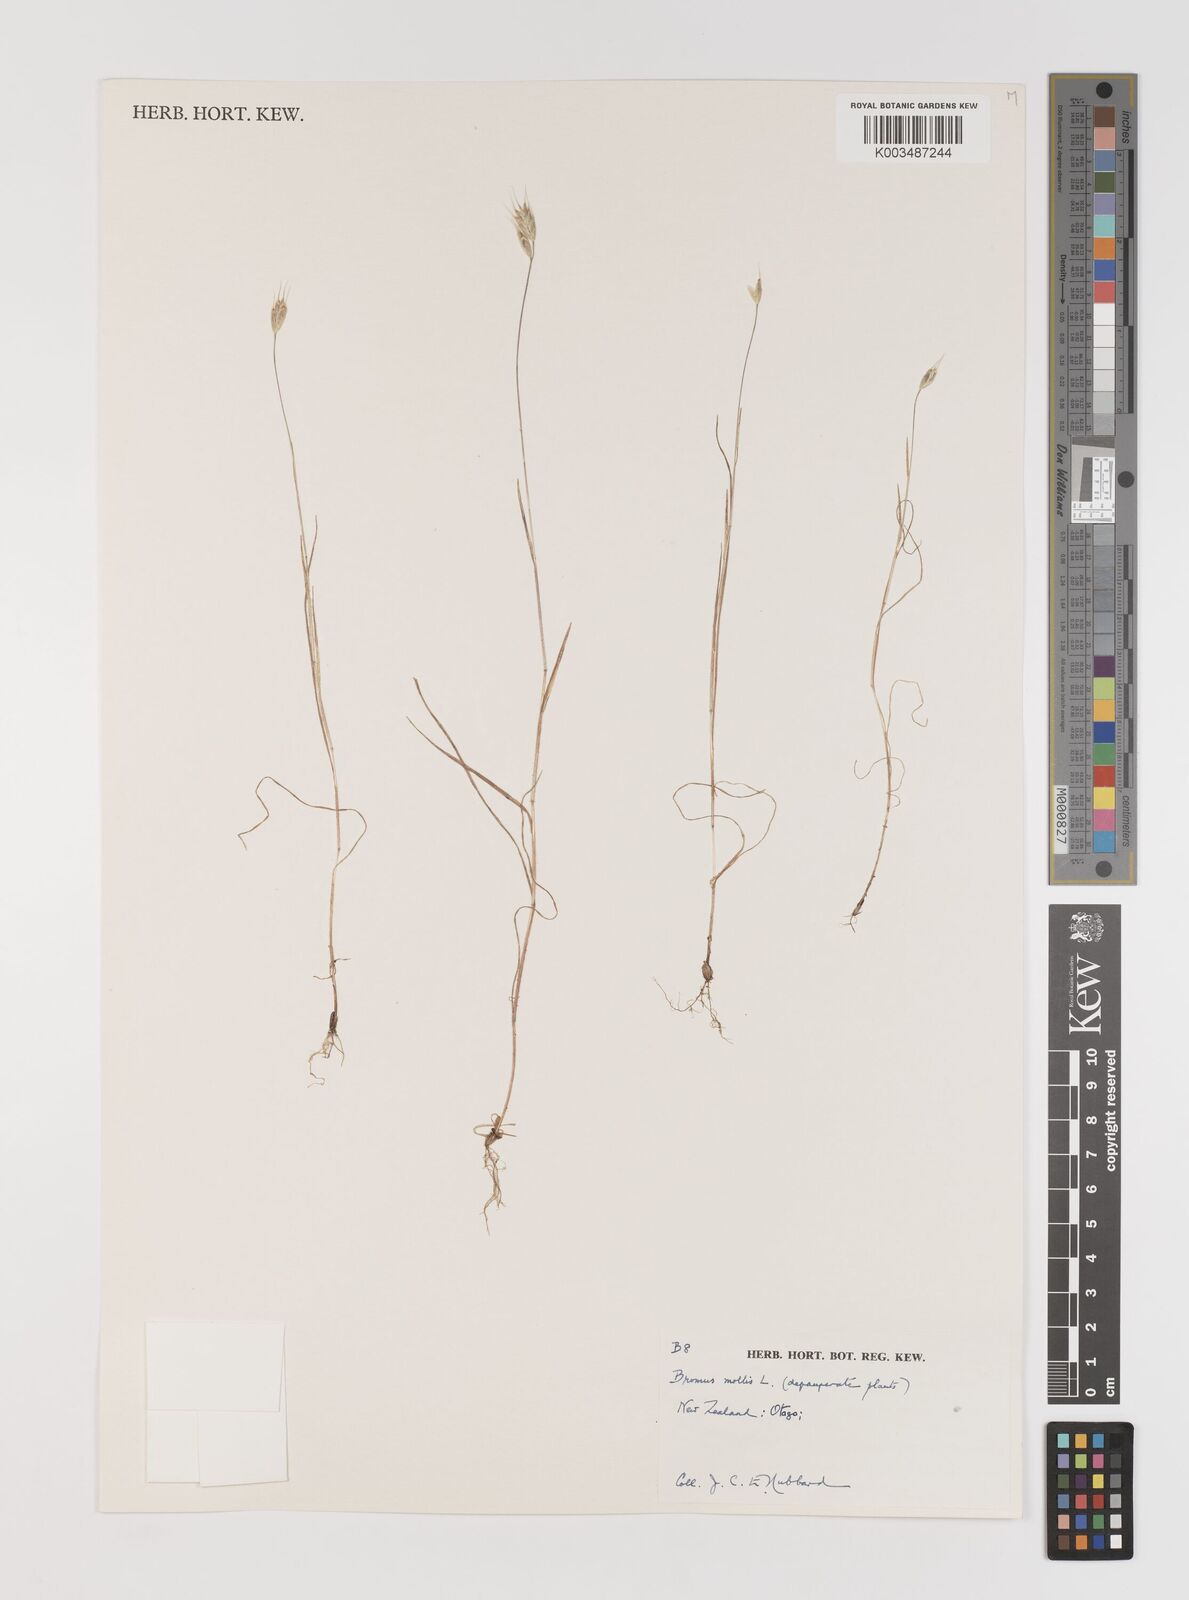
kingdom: Plantae
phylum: Tracheophyta
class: Liliopsida
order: Poales
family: Poaceae
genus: Bromus
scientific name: Bromus hordeaceus
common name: Soft brome
